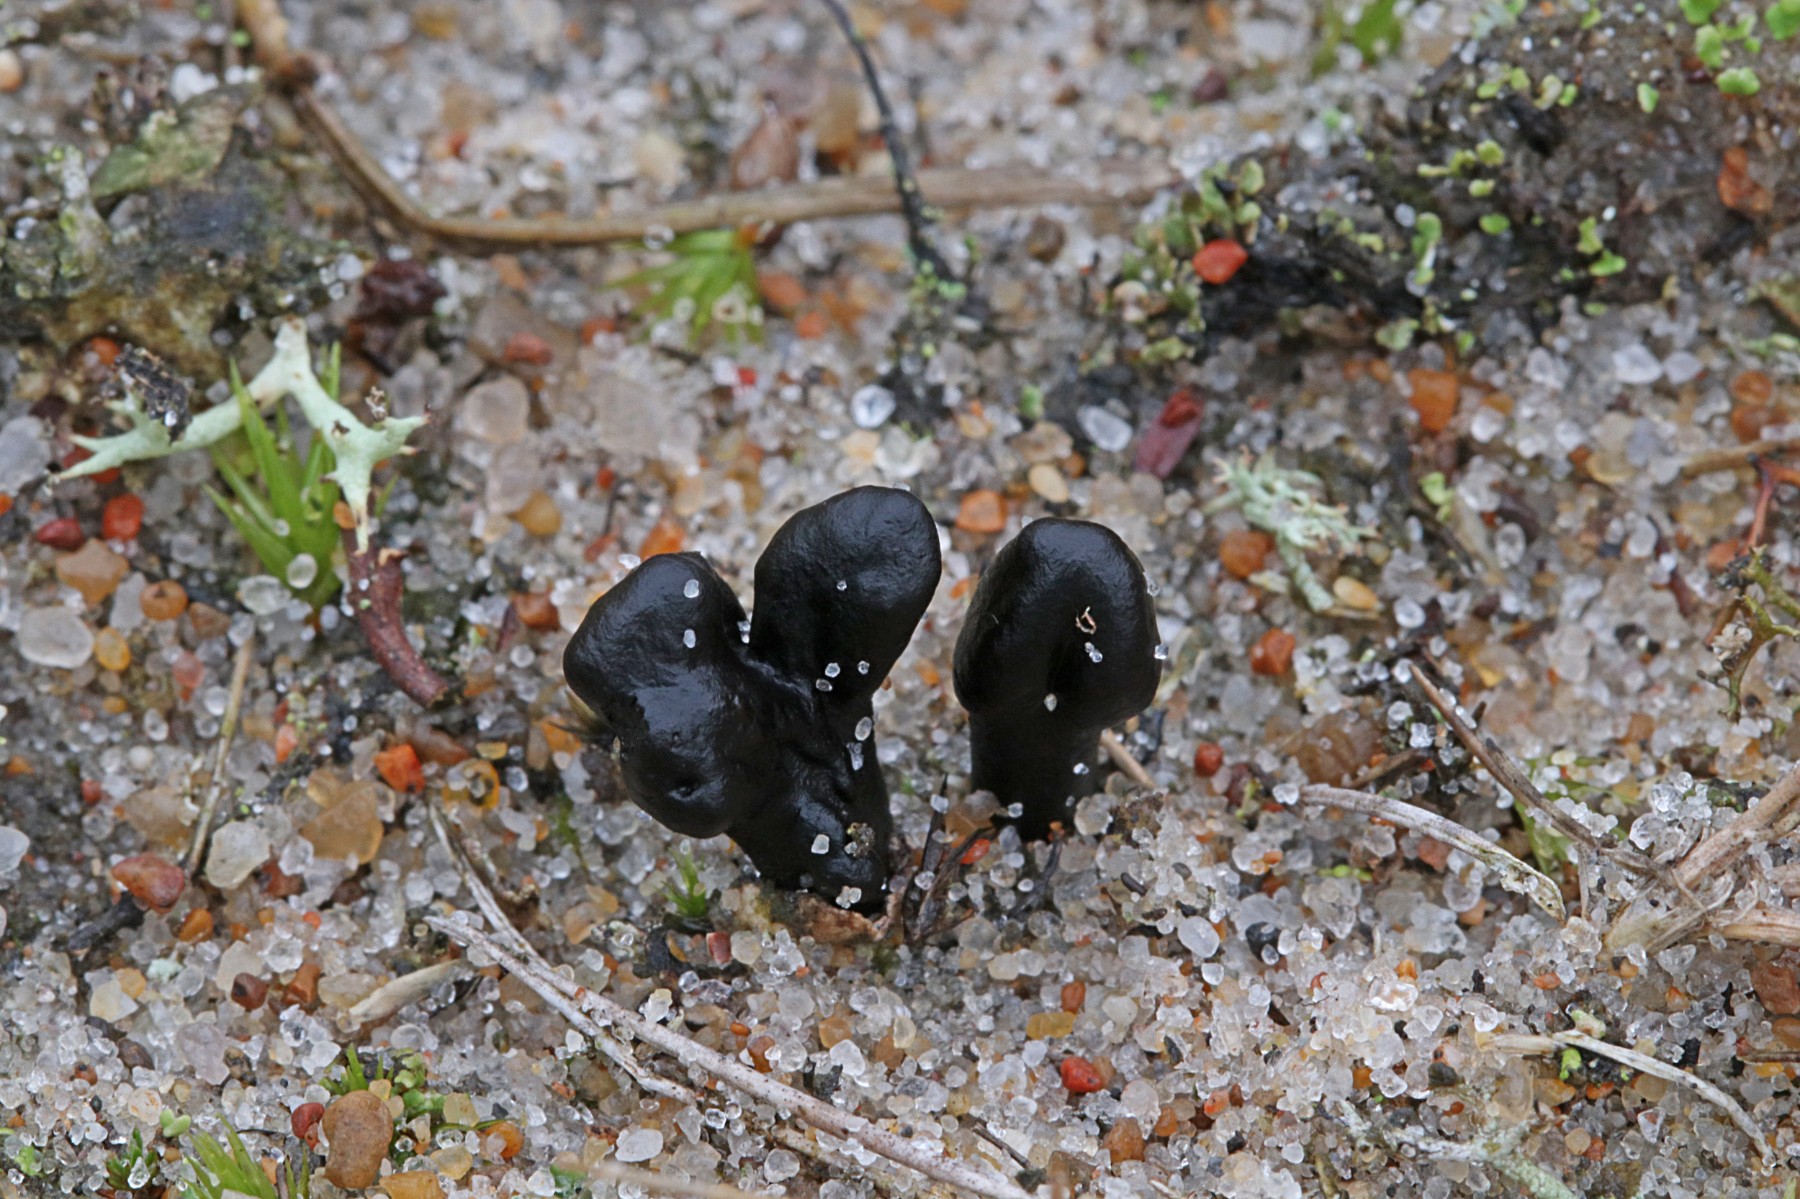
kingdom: Fungi
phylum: Ascomycota
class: Geoglossomycetes
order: Geoglossales
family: Geoglossaceae
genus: Sabuloglossum
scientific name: Sabuloglossum arenarium
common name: klit-jordtunge
